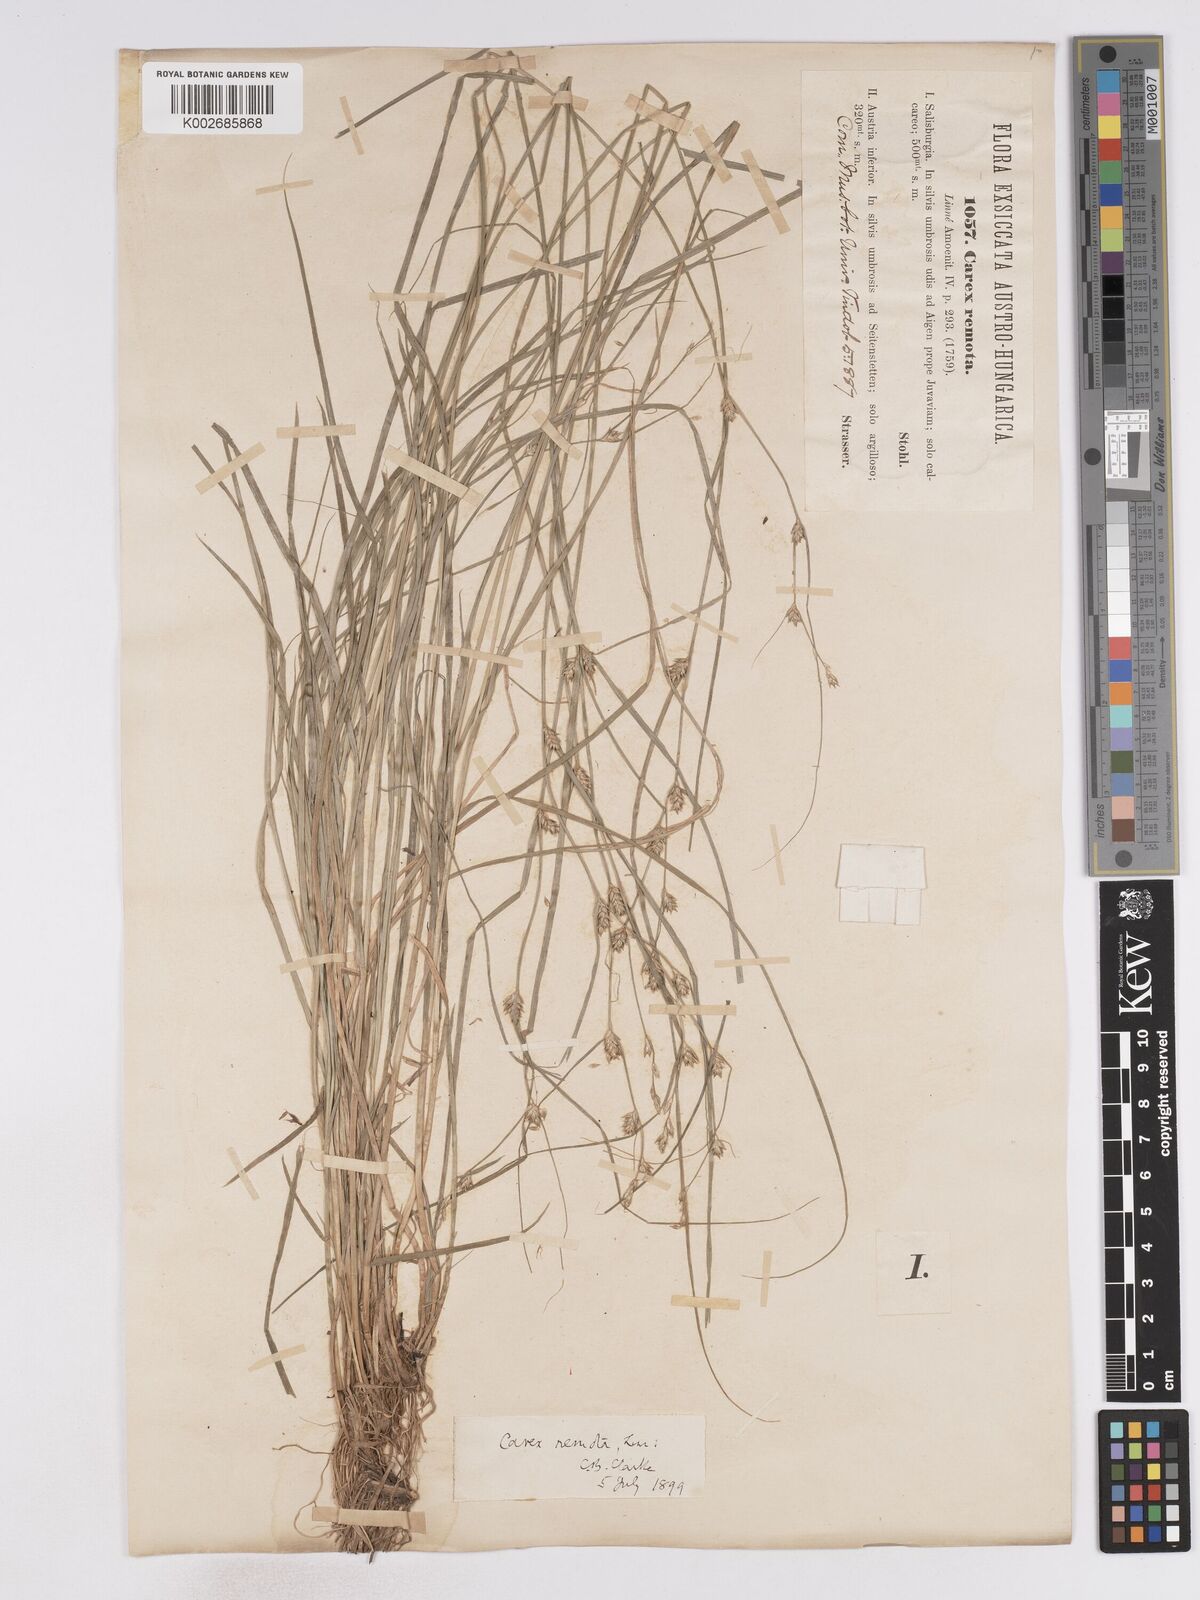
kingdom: Plantae
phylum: Tracheophyta
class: Liliopsida
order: Poales
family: Cyperaceae
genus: Carex
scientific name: Carex remota
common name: Remote sedge
